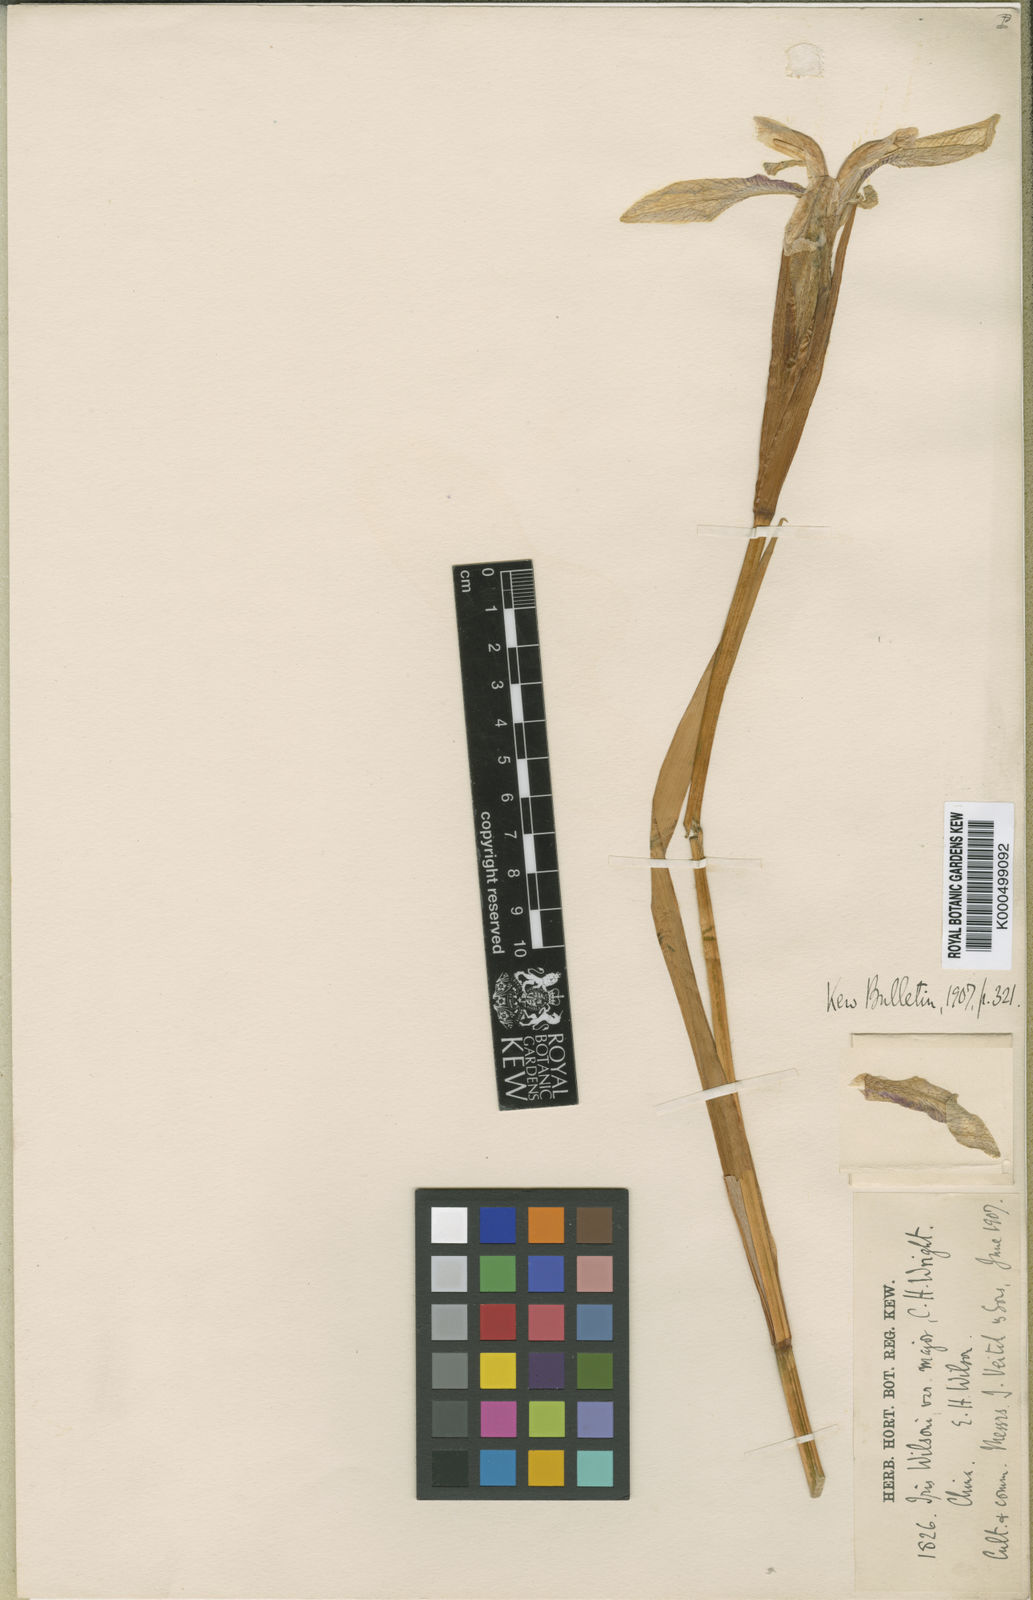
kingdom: Plantae
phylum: Tracheophyta
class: Liliopsida
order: Asparagales
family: Iridaceae
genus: Iris
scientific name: Iris wilsonii
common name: Yellow-flower iris
